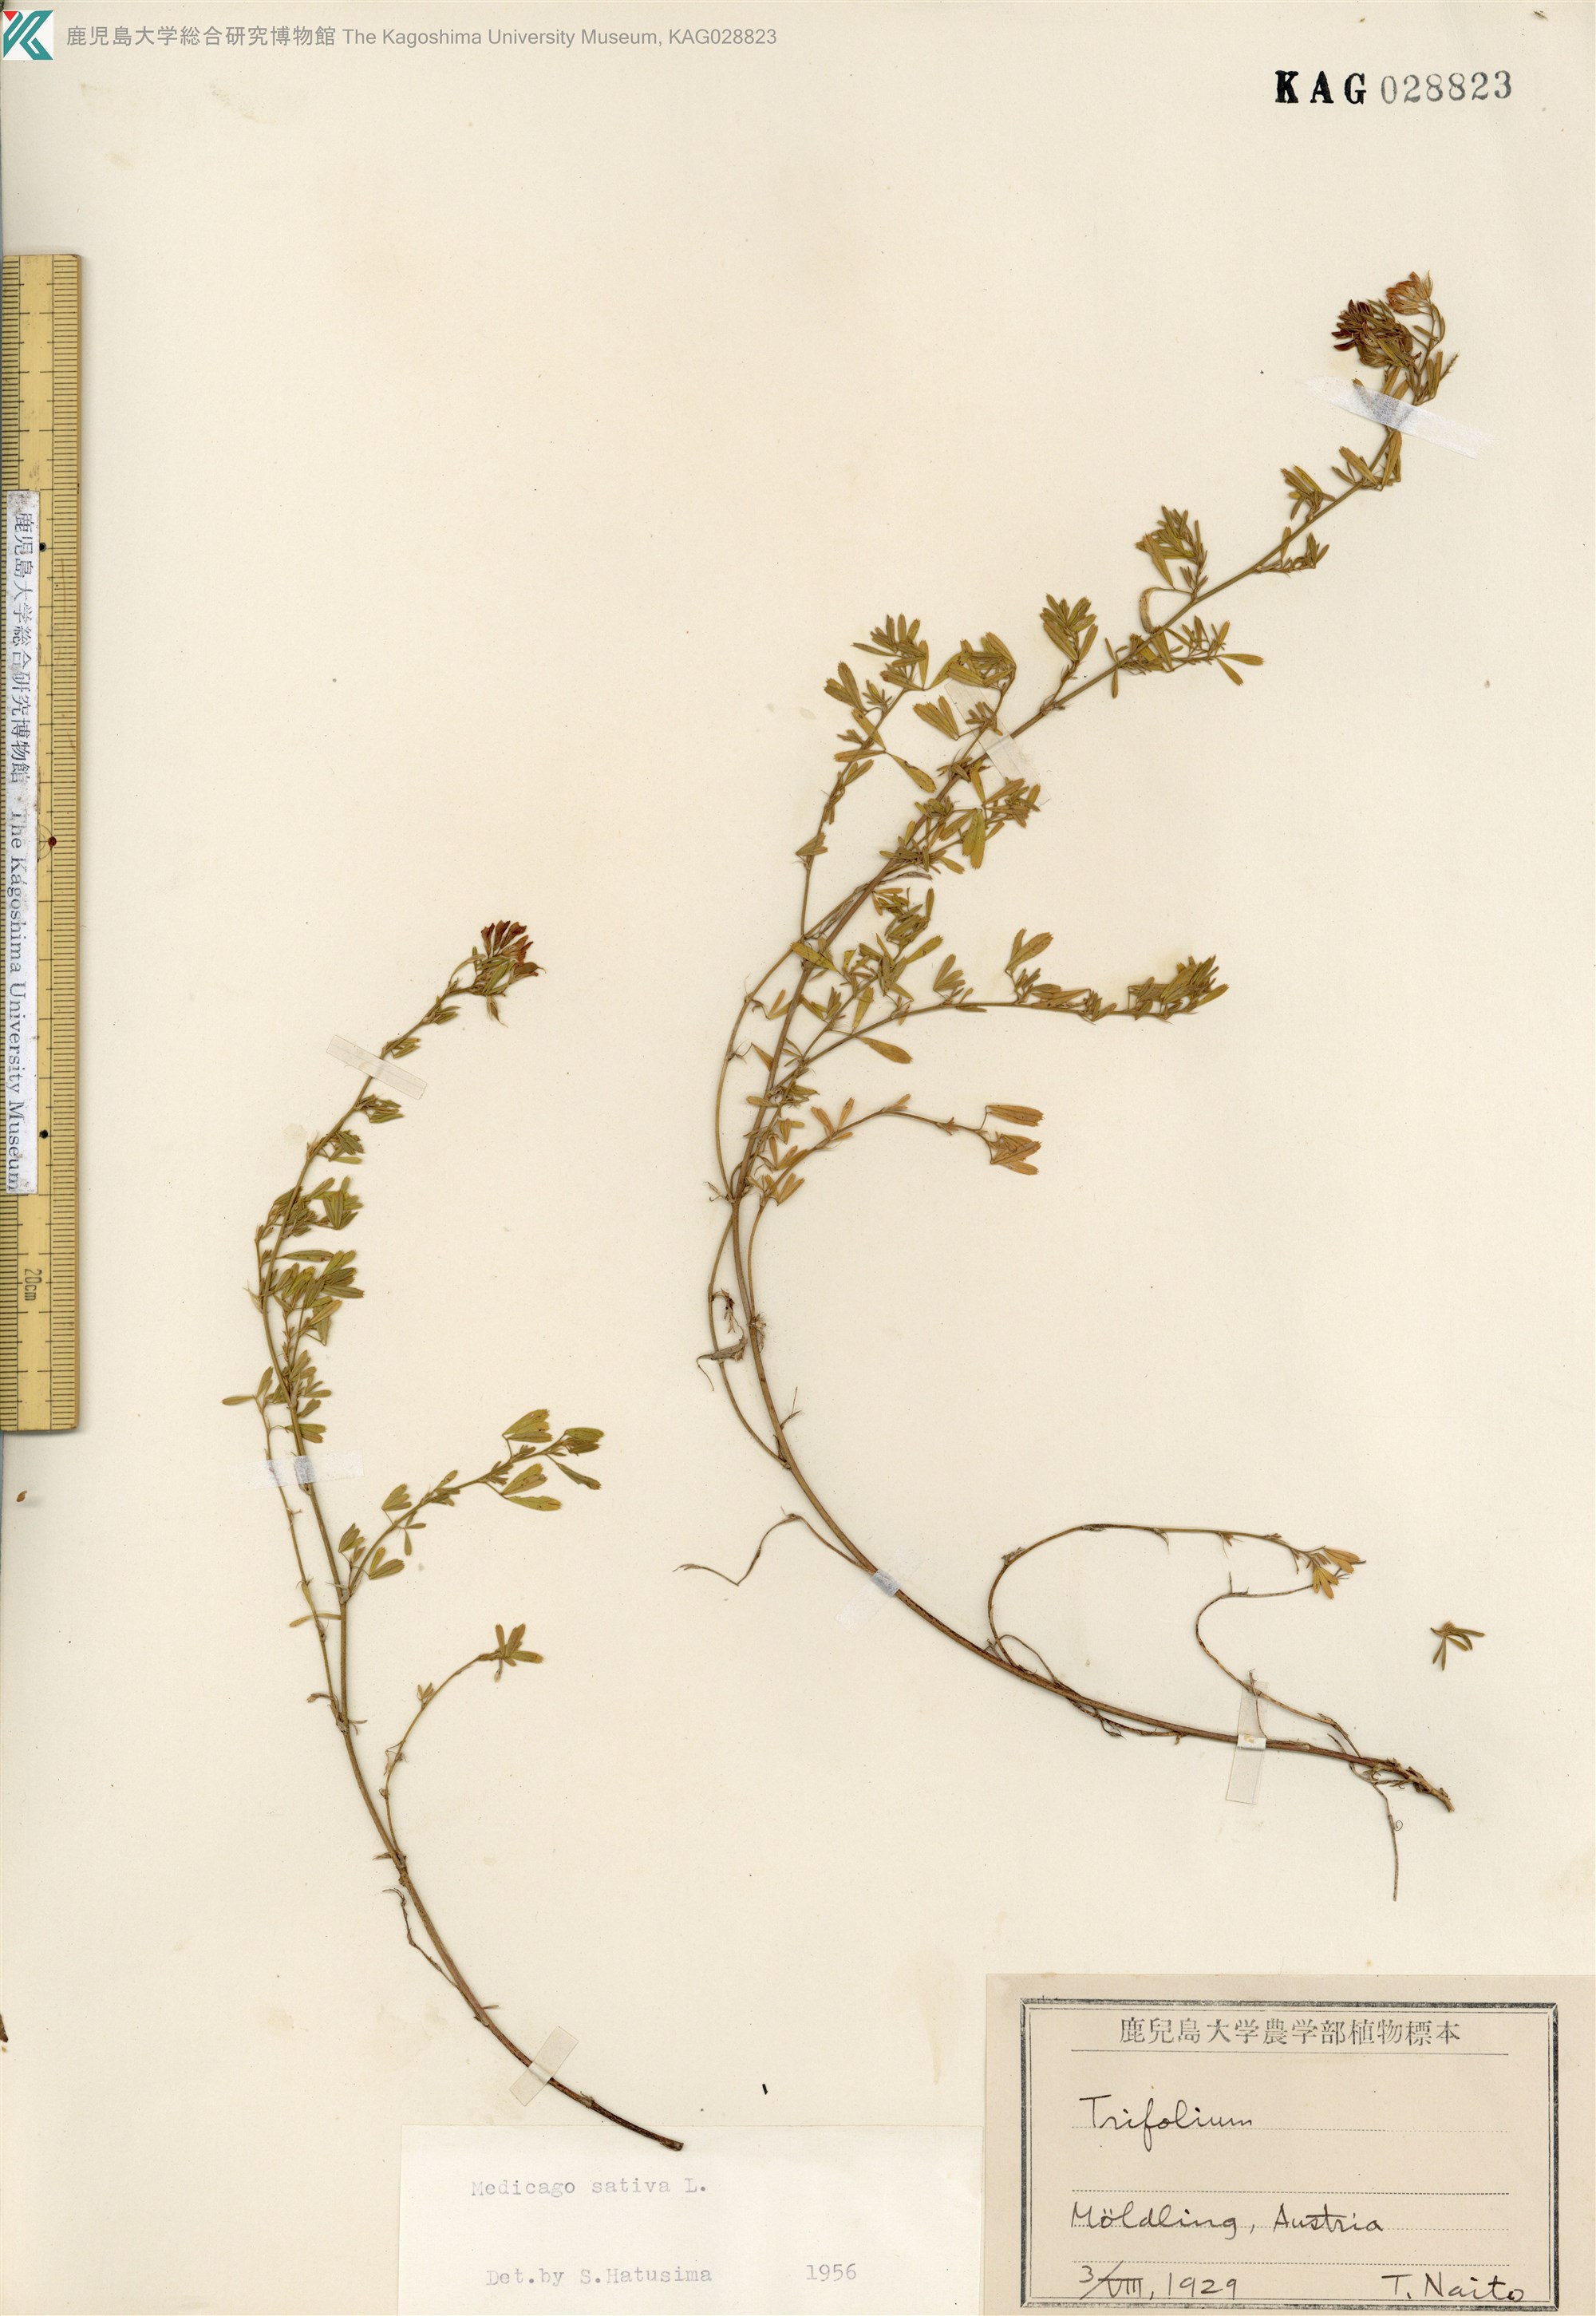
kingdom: Plantae
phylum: Tracheophyta
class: Magnoliopsida
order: Fabales
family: Fabaceae
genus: Medicago
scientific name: Medicago sativa
